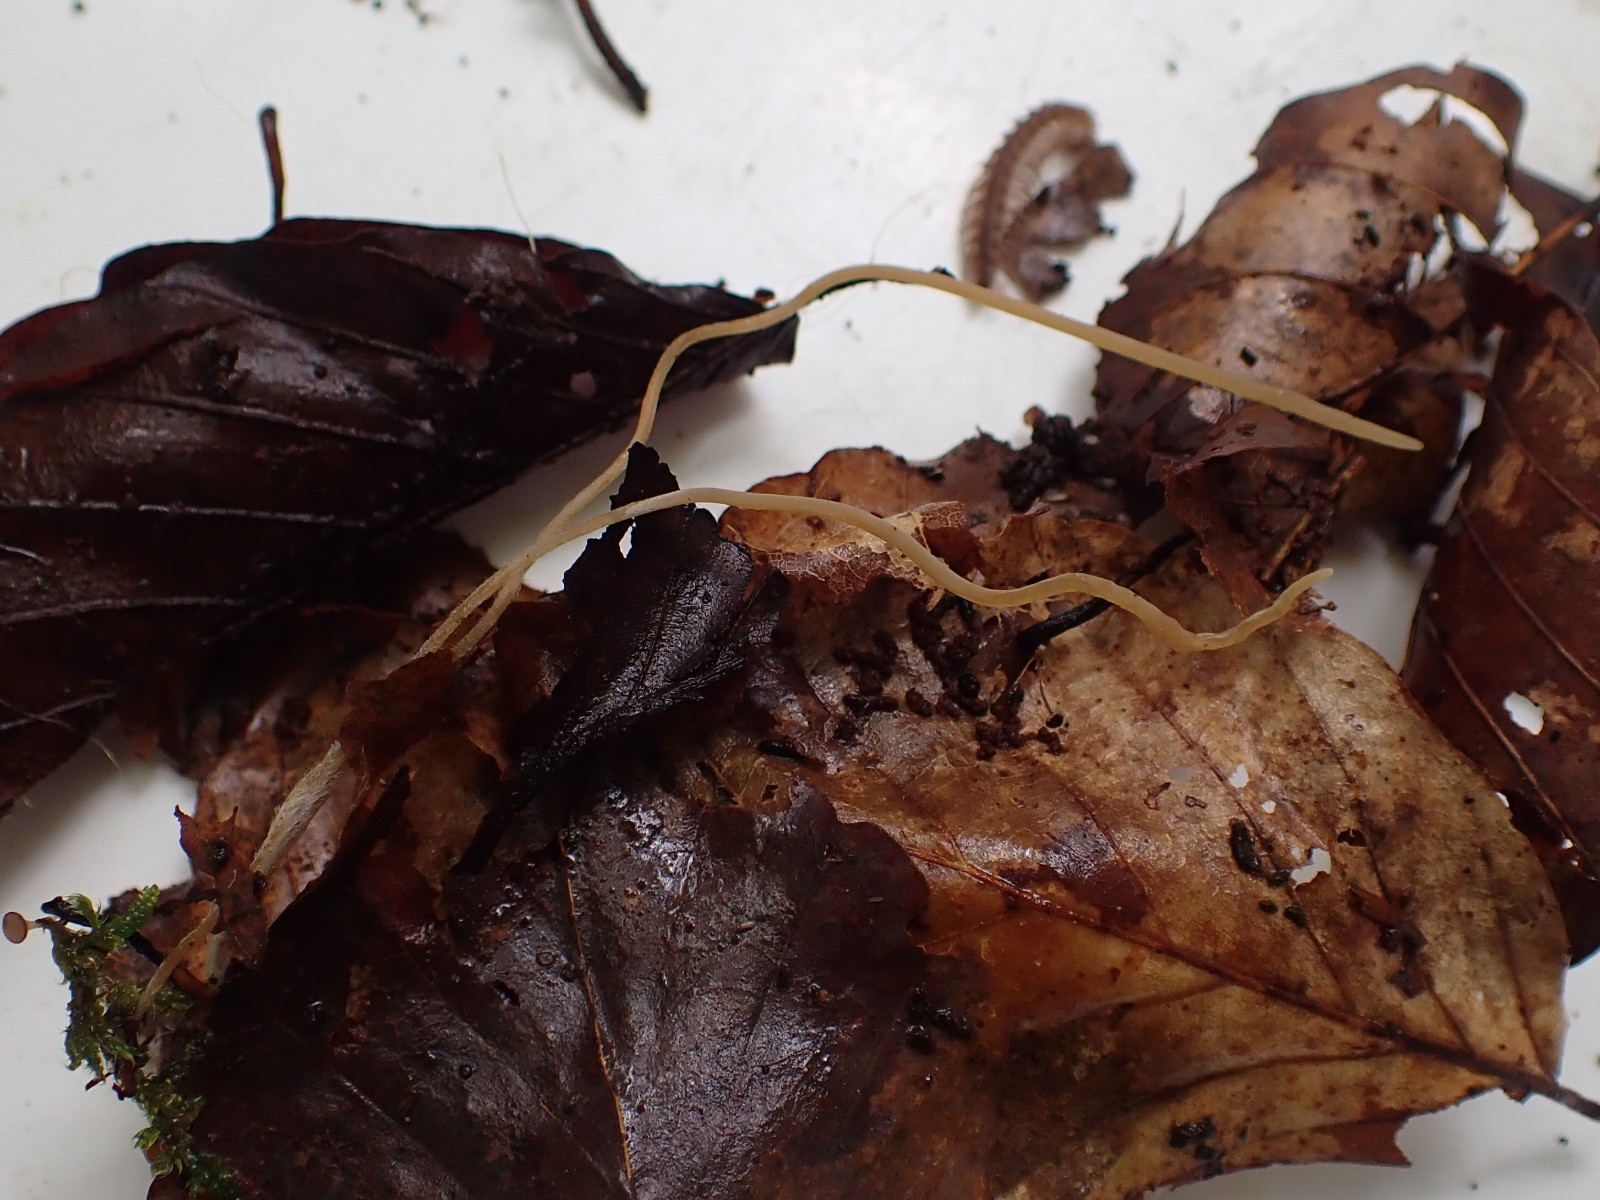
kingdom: Fungi
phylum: Basidiomycota
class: Agaricomycetes
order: Agaricales
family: Typhulaceae
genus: Typhula
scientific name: Typhula juncea
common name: trådagtig rørkølle
